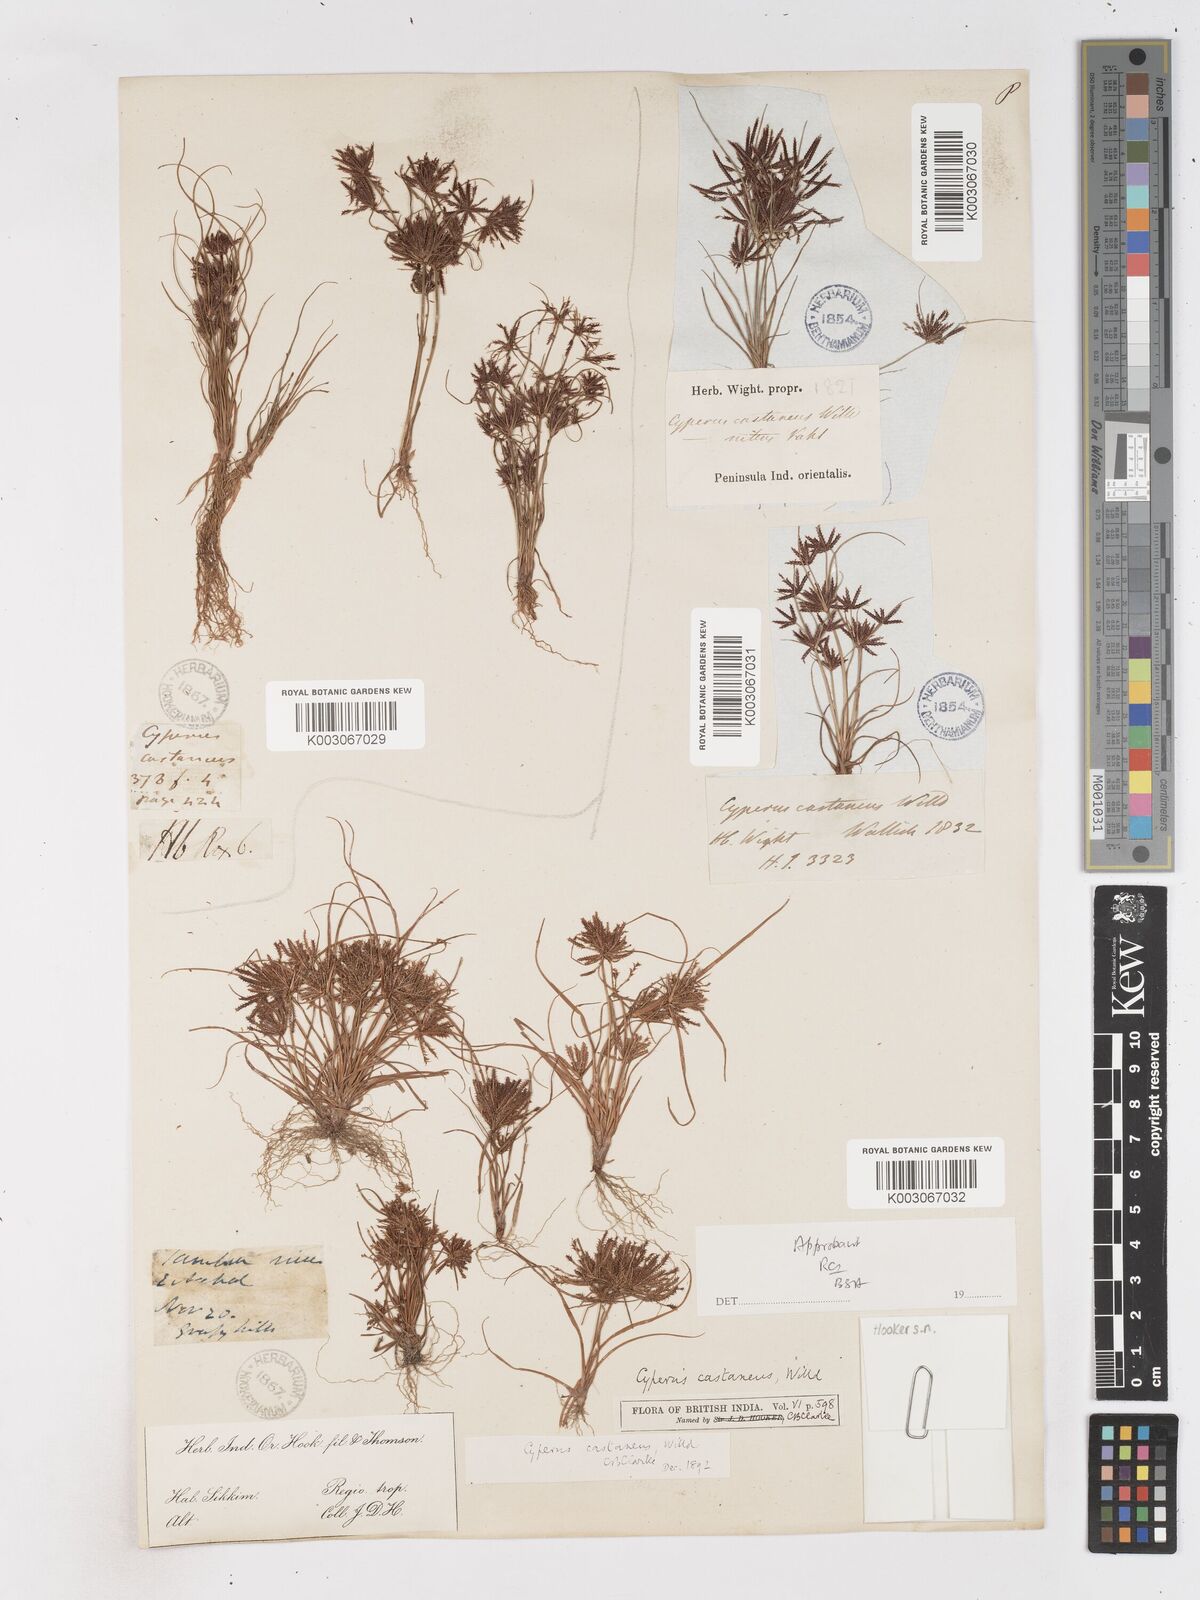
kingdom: Plantae
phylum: Tracheophyta
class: Liliopsida
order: Poales
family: Cyperaceae
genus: Cyperus
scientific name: Cyperus castaneus
